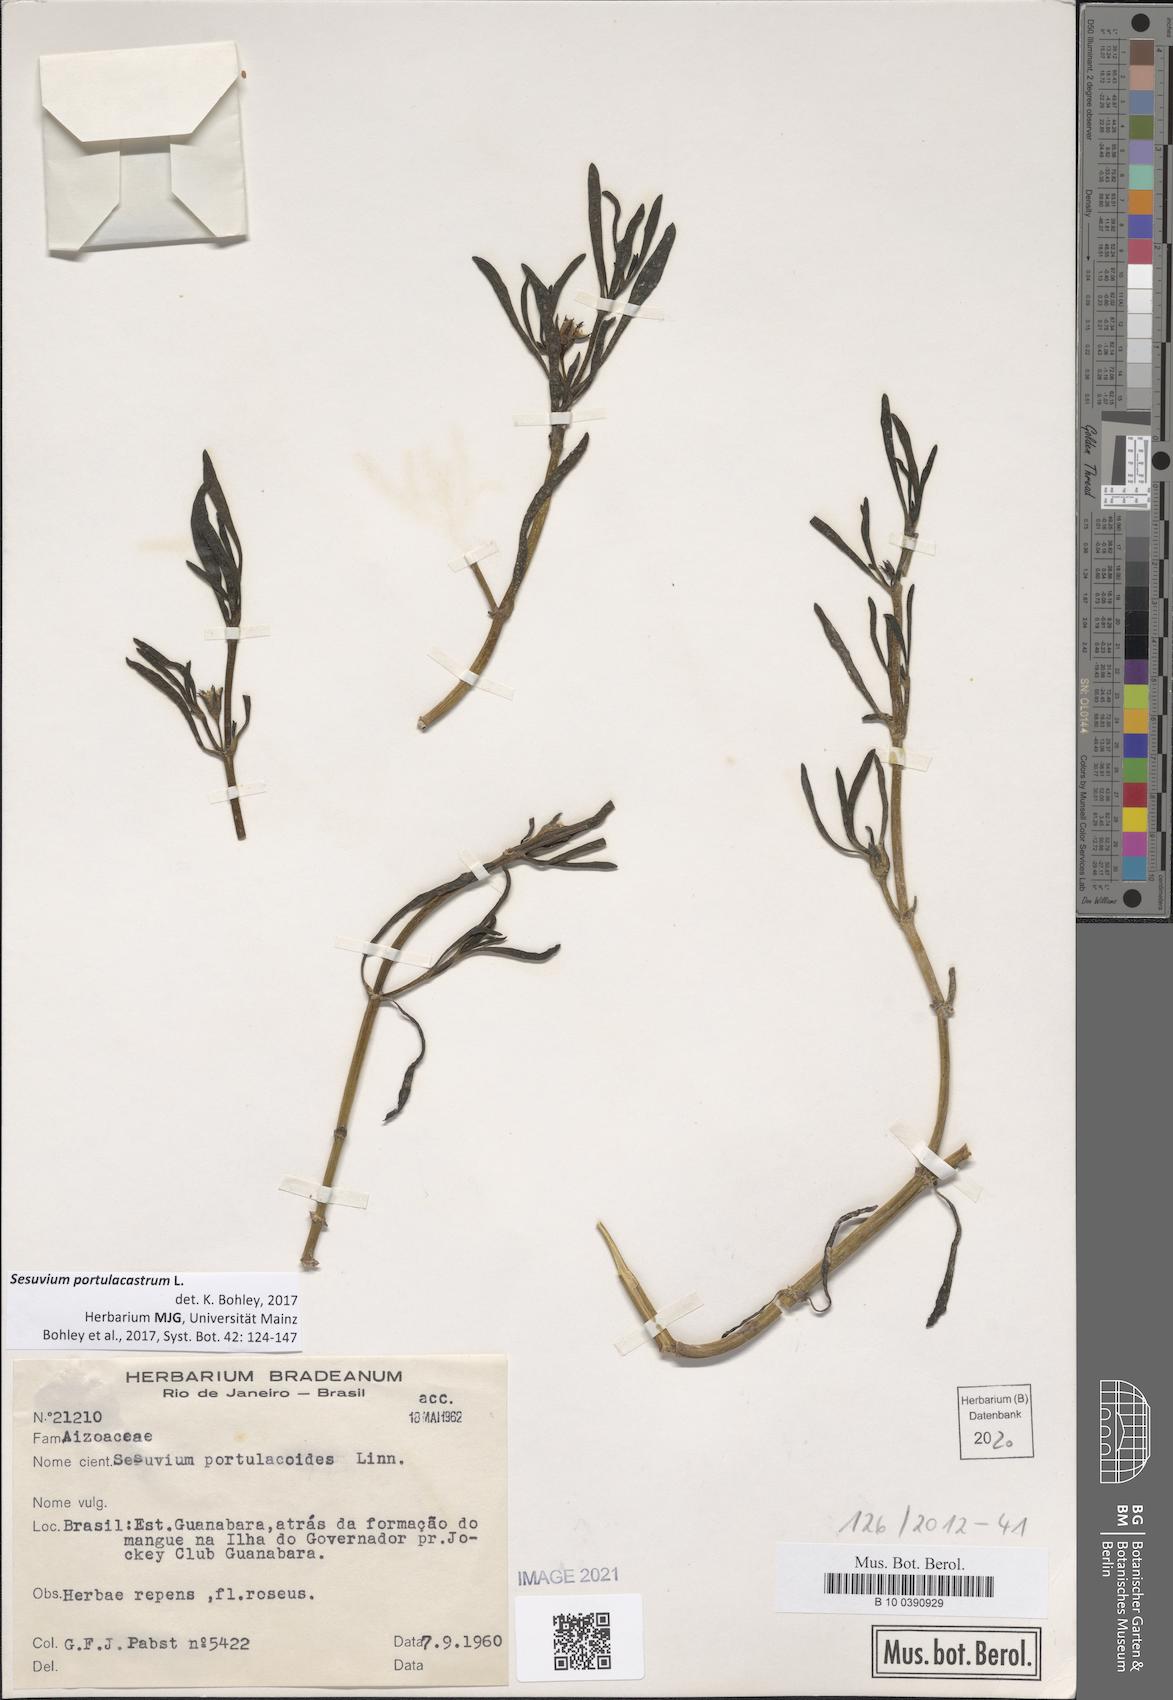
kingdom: Plantae
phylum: Tracheophyta
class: Magnoliopsida
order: Caryophyllales
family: Aizoaceae
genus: Sesuvium
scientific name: Sesuvium portulacastrum
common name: Sea-purslane
